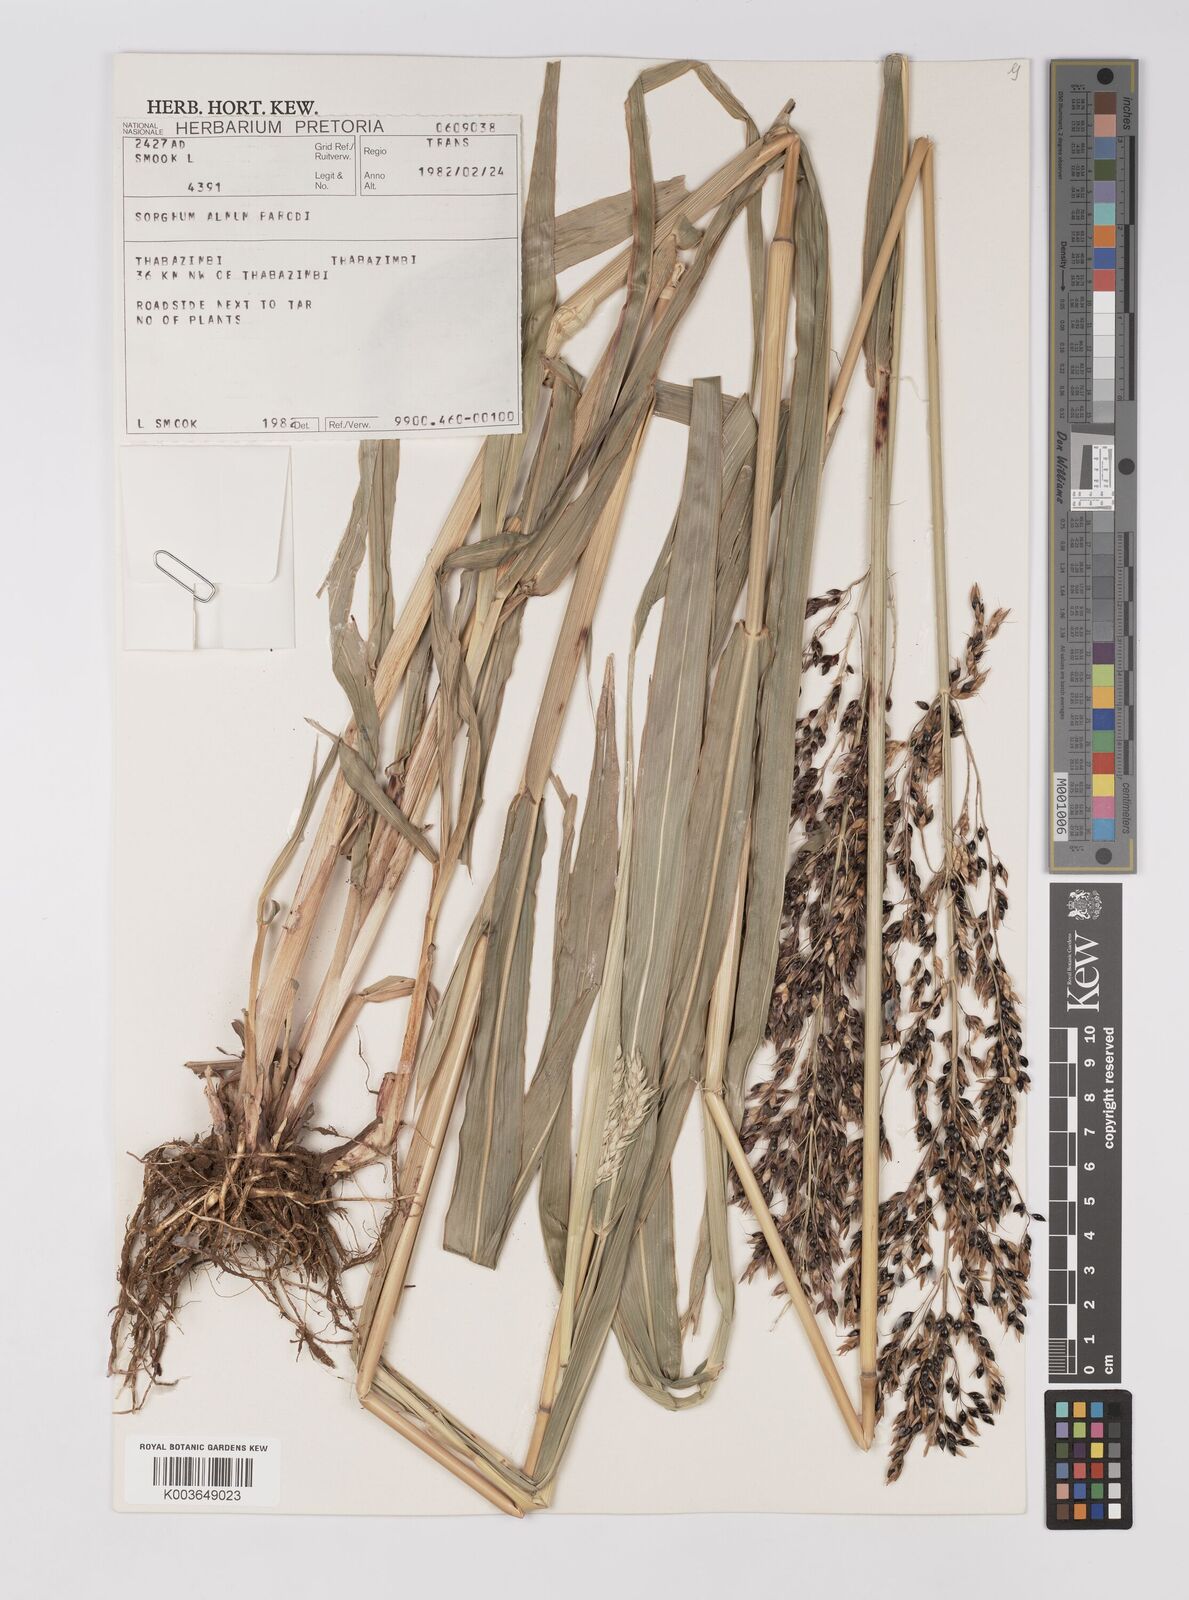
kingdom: Plantae
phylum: Tracheophyta
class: Liliopsida
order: Poales
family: Poaceae
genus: Sorghum
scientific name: Sorghum almum
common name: Columbus grass
